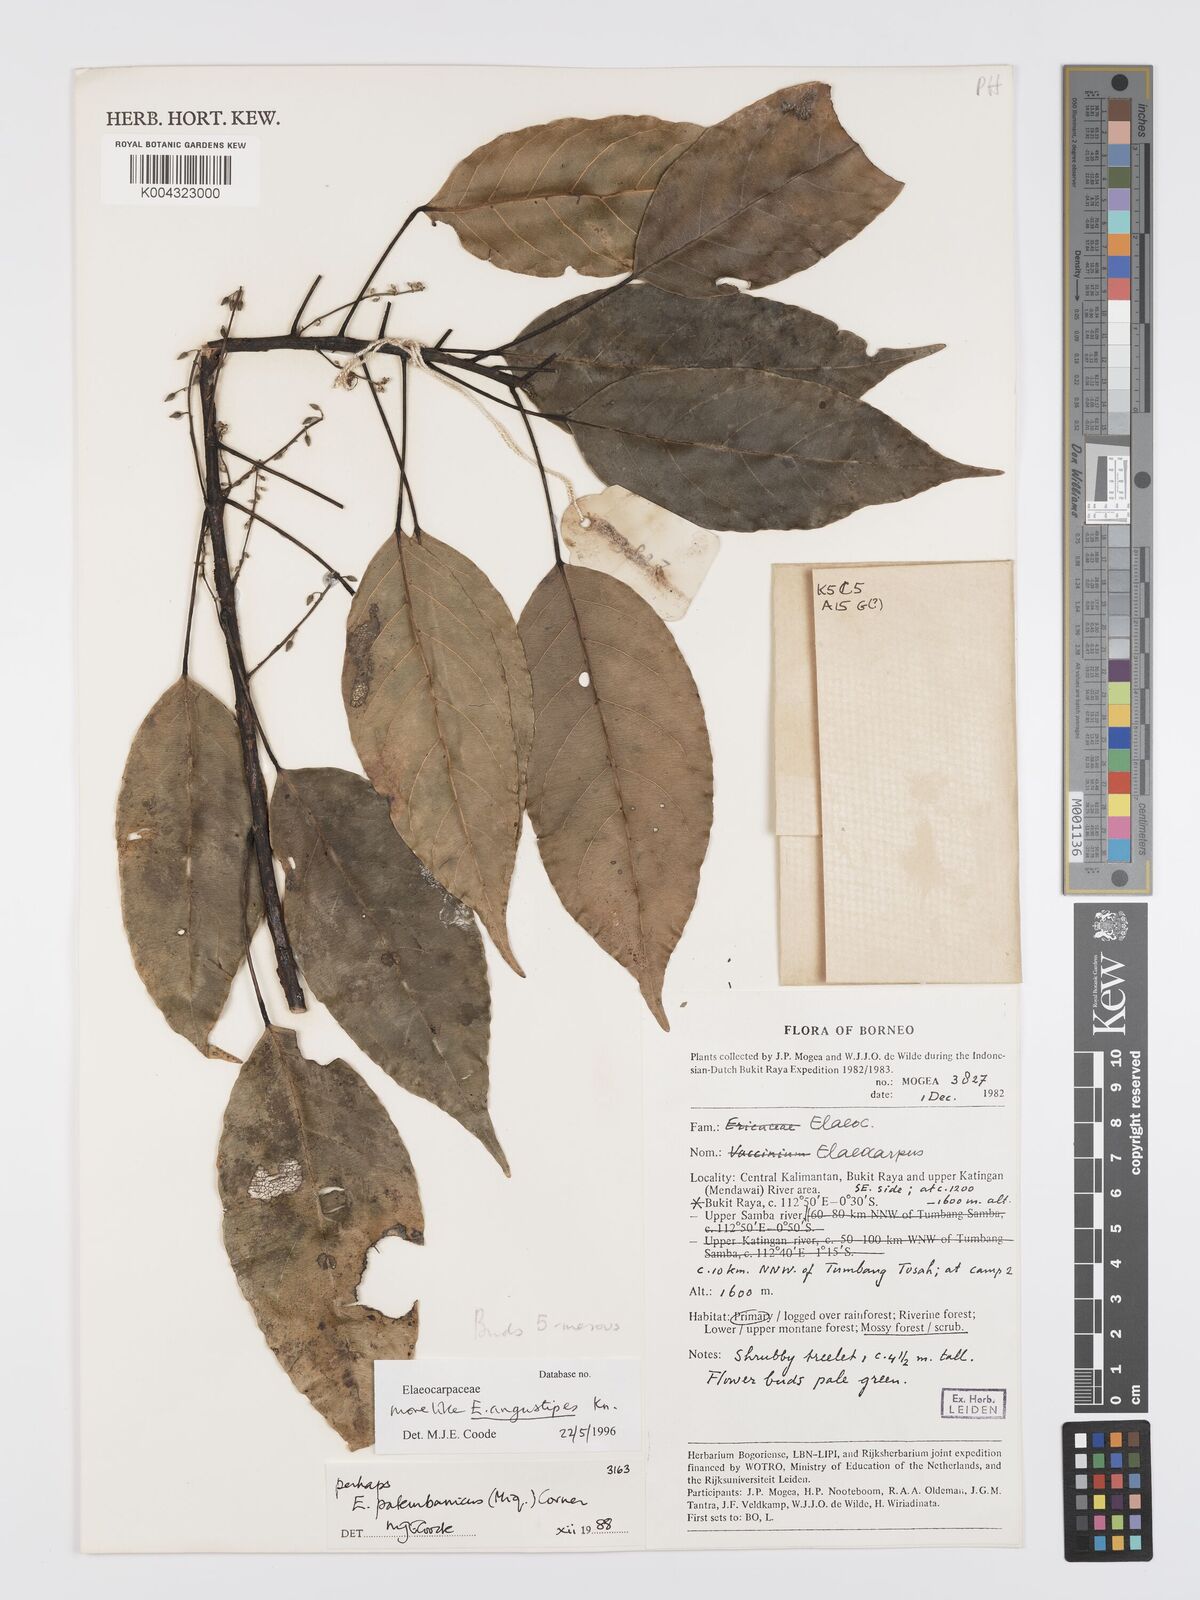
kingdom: Plantae
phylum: Tracheophyta
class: Magnoliopsida
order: Oxalidales
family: Elaeocarpaceae
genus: Elaeocarpus
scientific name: Elaeocarpus angustipes
